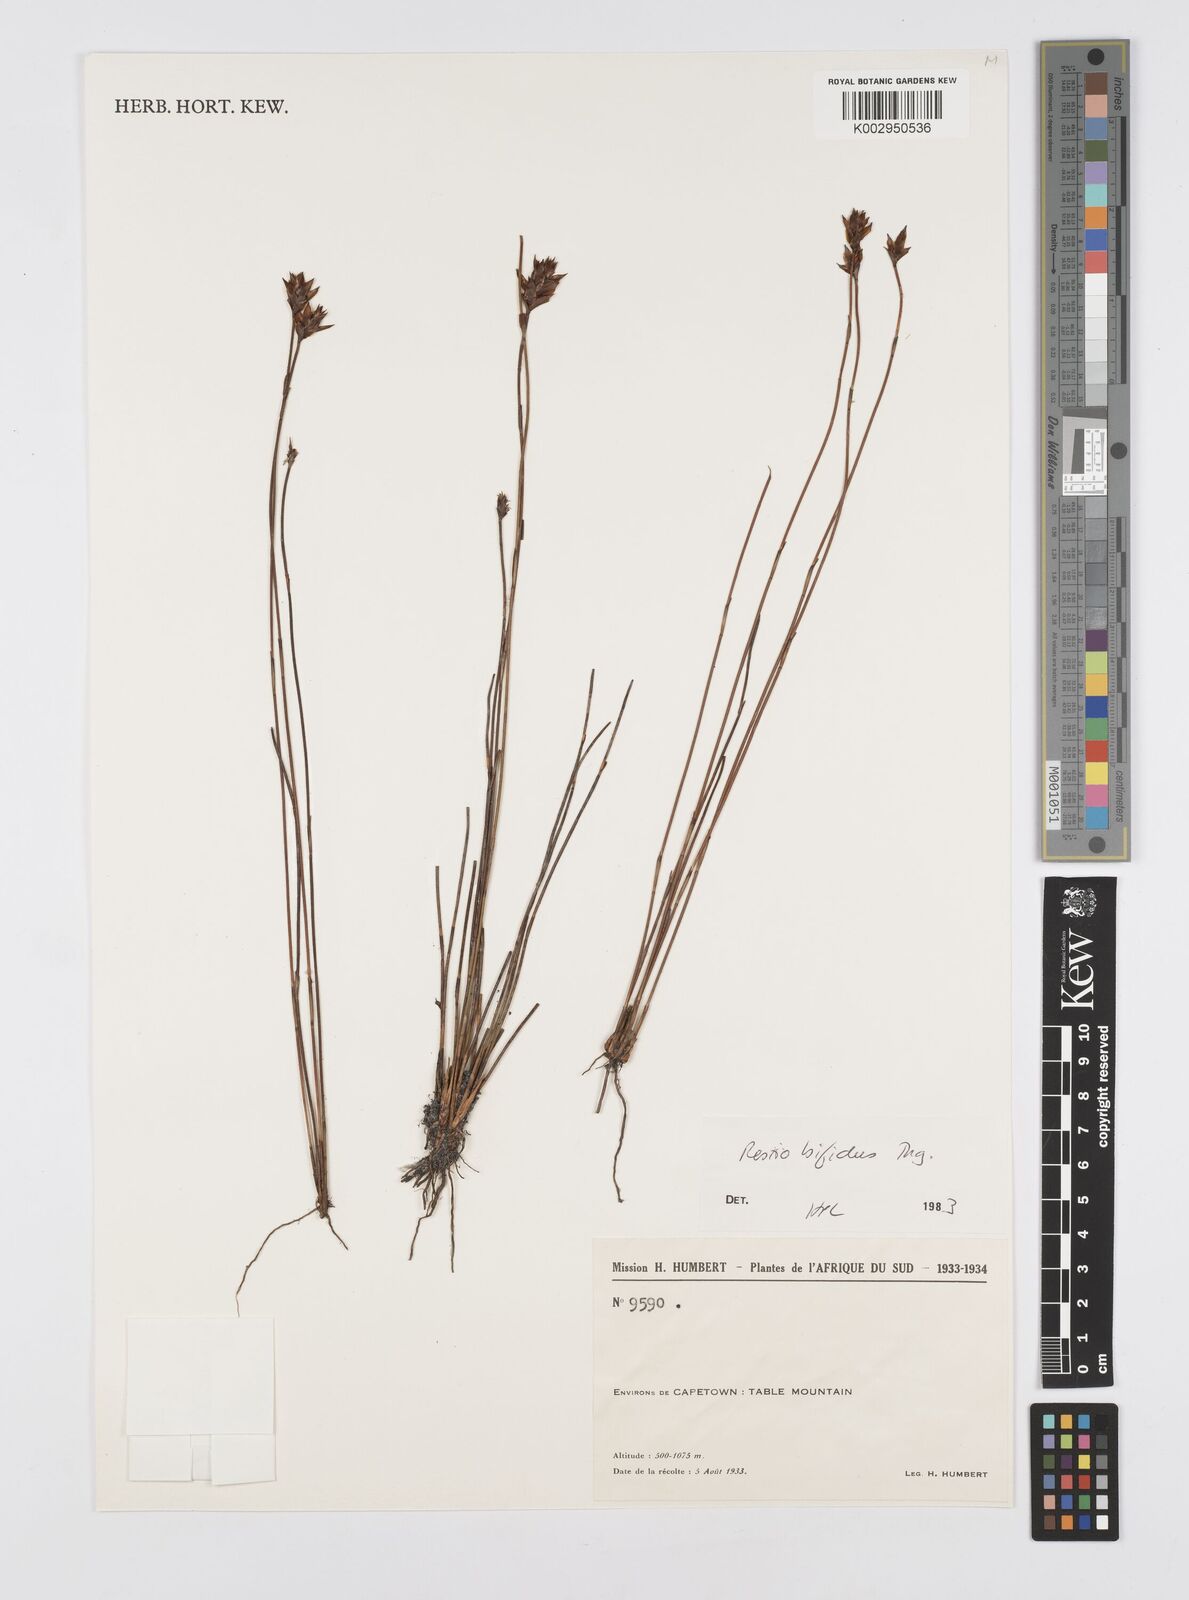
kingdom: Plantae
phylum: Tracheophyta
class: Liliopsida
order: Poales
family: Restionaceae
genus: Restio
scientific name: Restio bifidus
